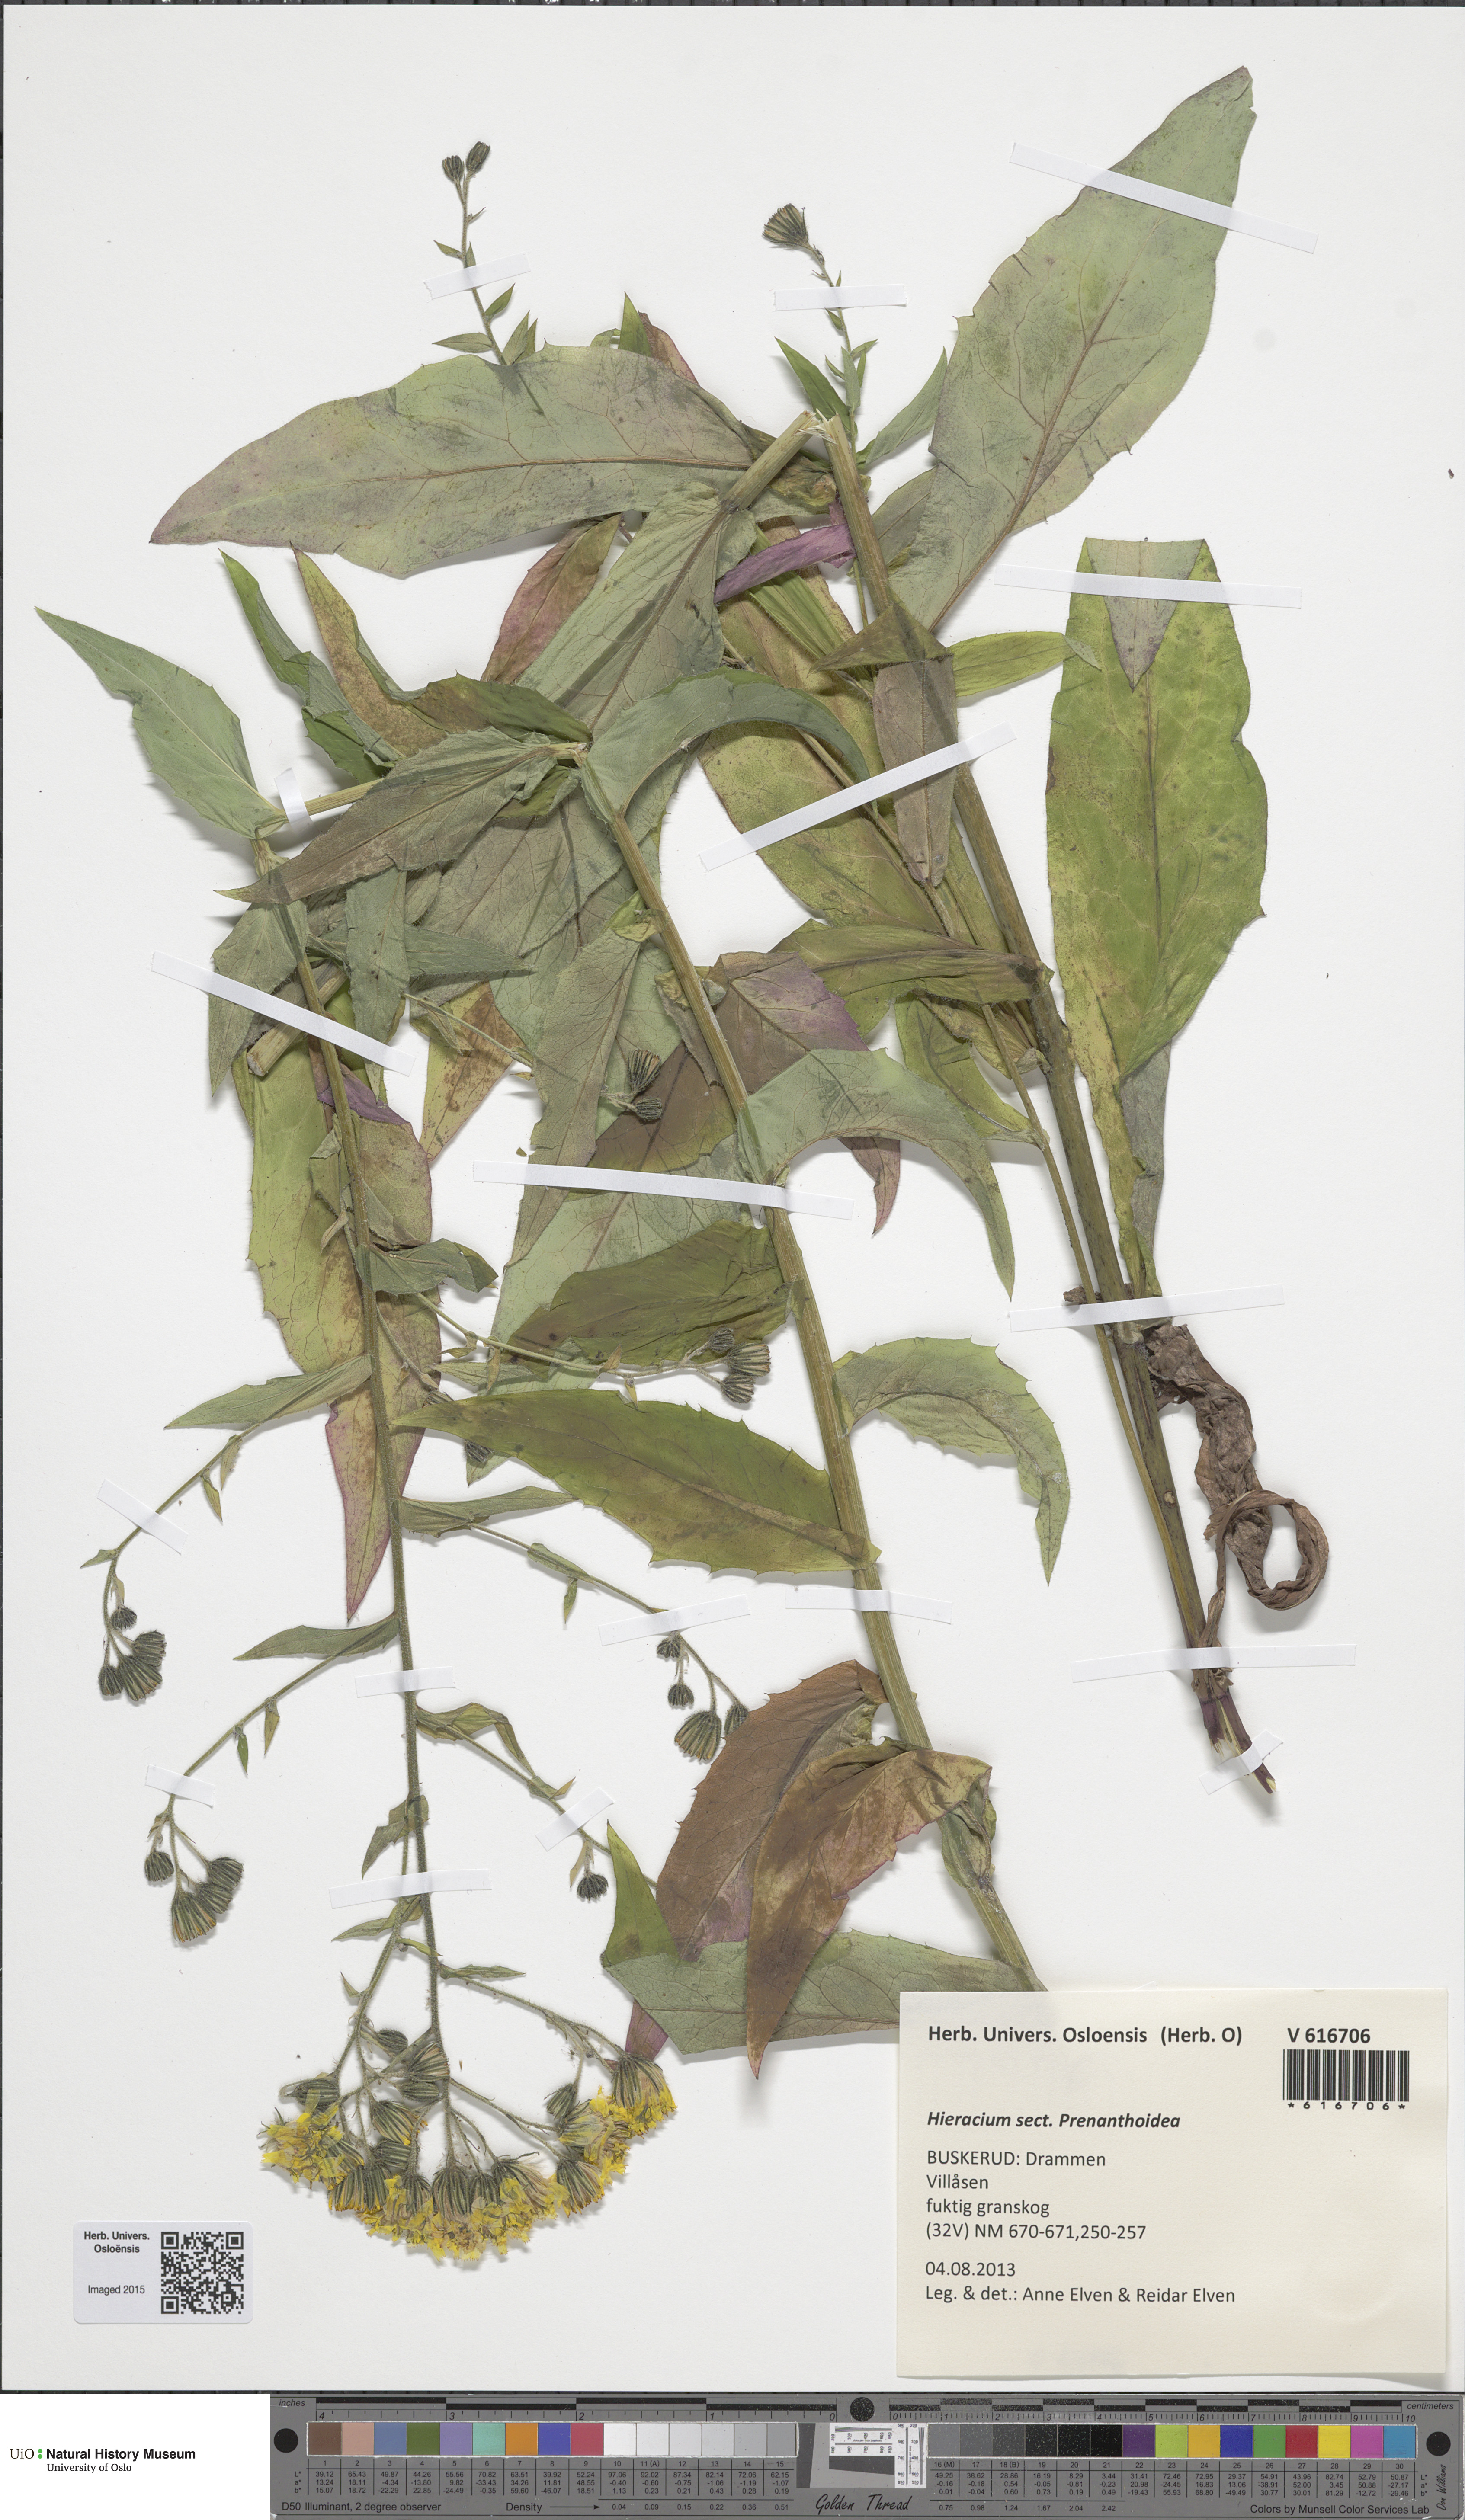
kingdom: Plantae
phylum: Tracheophyta
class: Magnoliopsida
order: Asterales
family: Asteraceae
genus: Hieracium
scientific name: Hieracium prenanthoides
